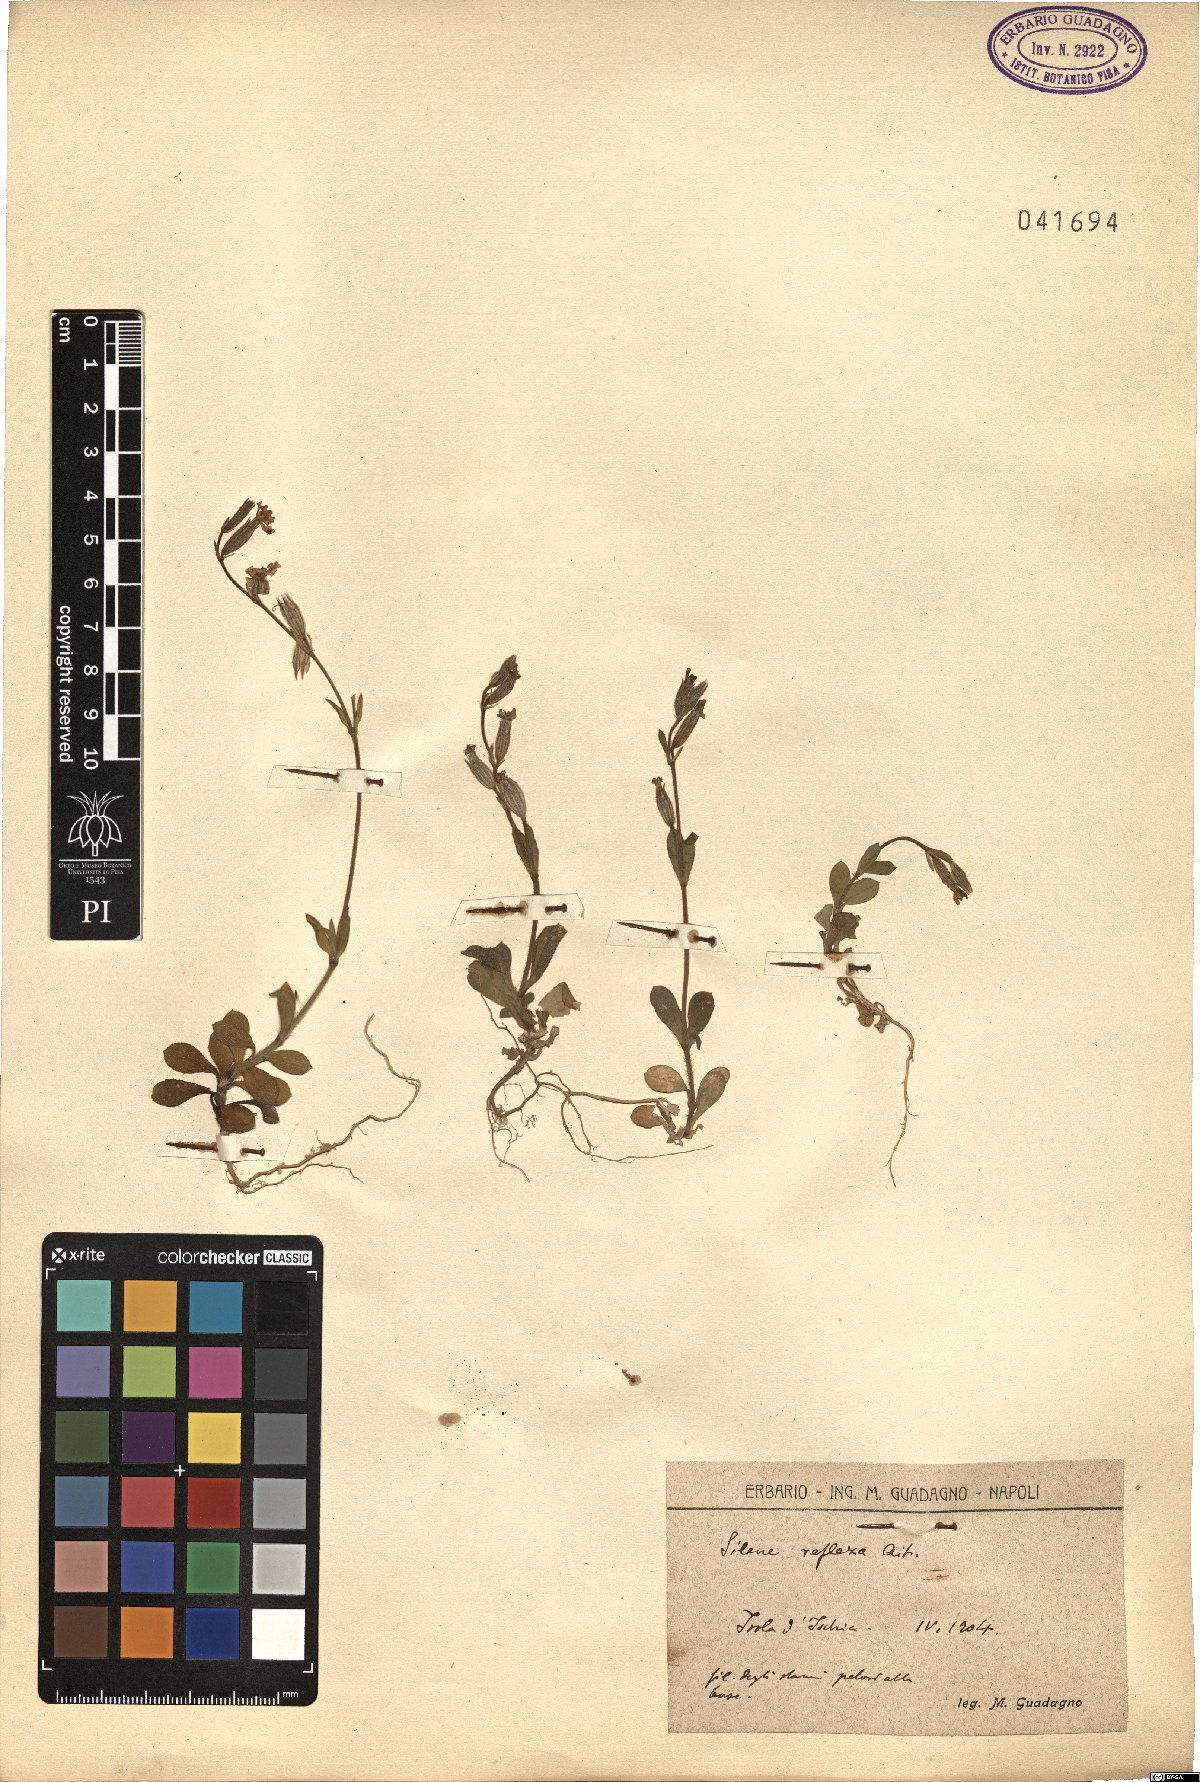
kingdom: Plantae
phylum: Tracheophyta
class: Magnoliopsida
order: Caryophyllales
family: Caryophyllaceae
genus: Silene
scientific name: Silene gallica
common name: Small-flowered catchfly
